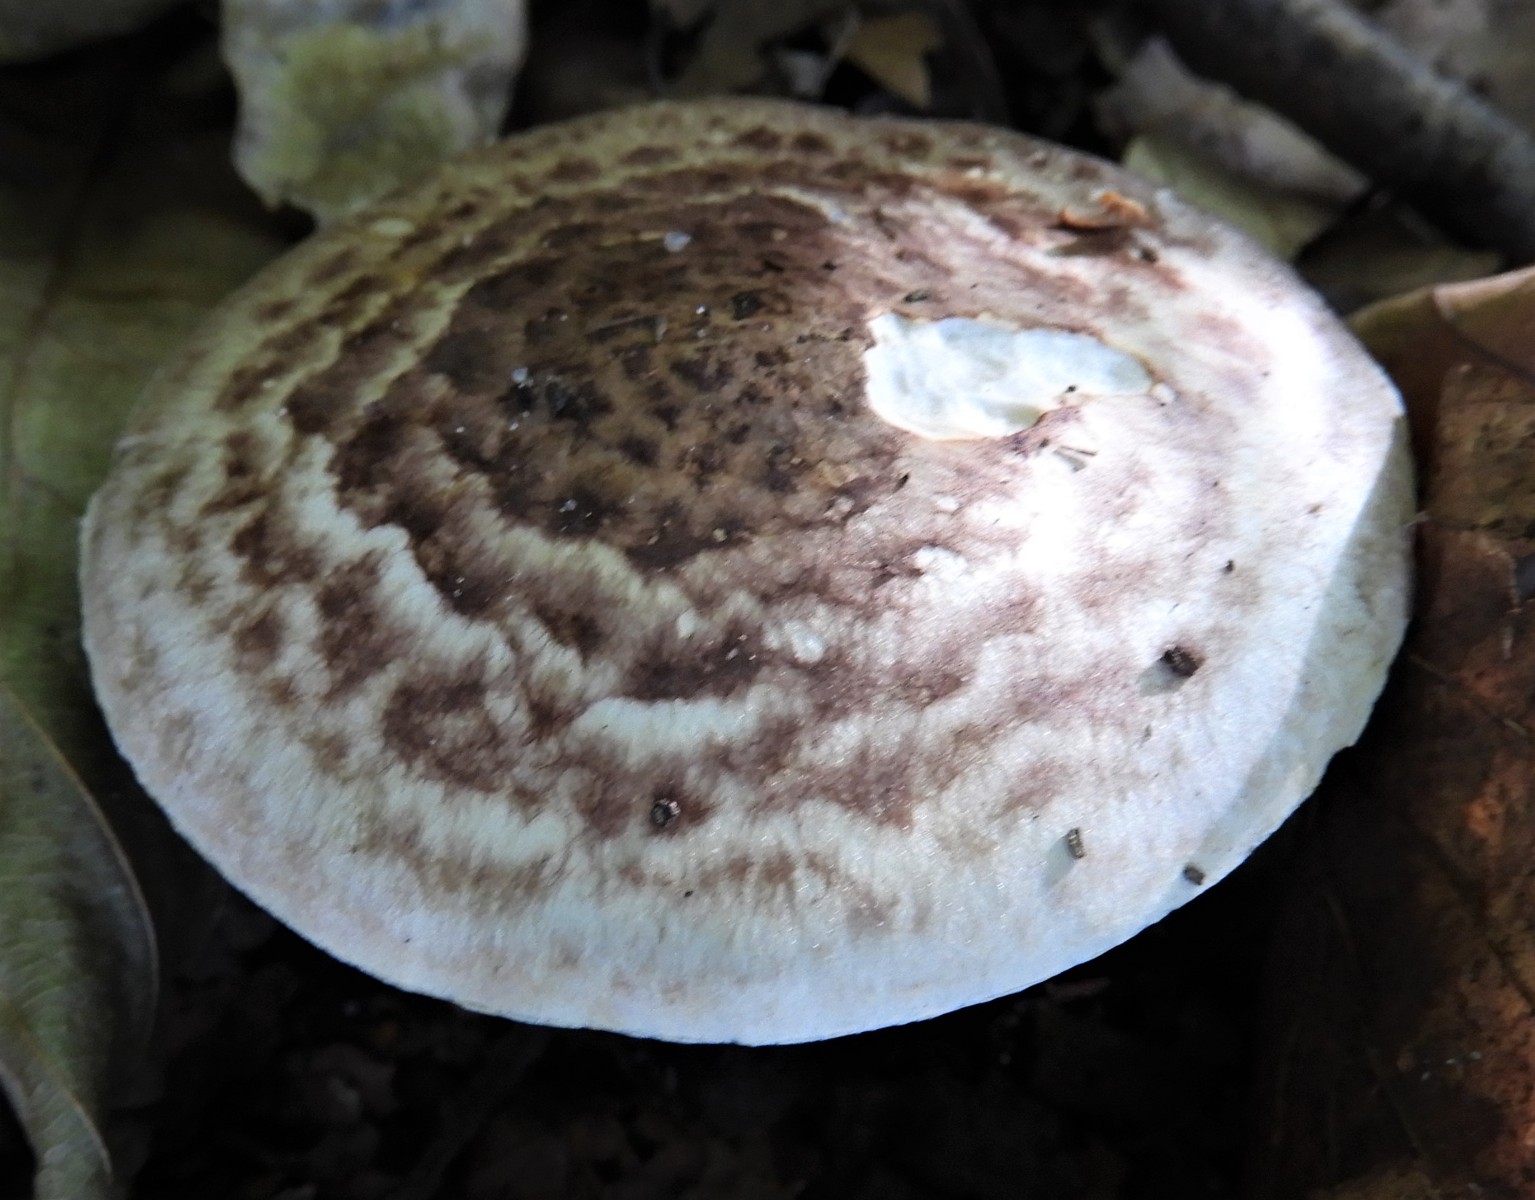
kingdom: Fungi
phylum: Basidiomycota
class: Agaricomycetes
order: Agaricales
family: Agaricaceae
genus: Agaricus
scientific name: Agaricus impudicus
